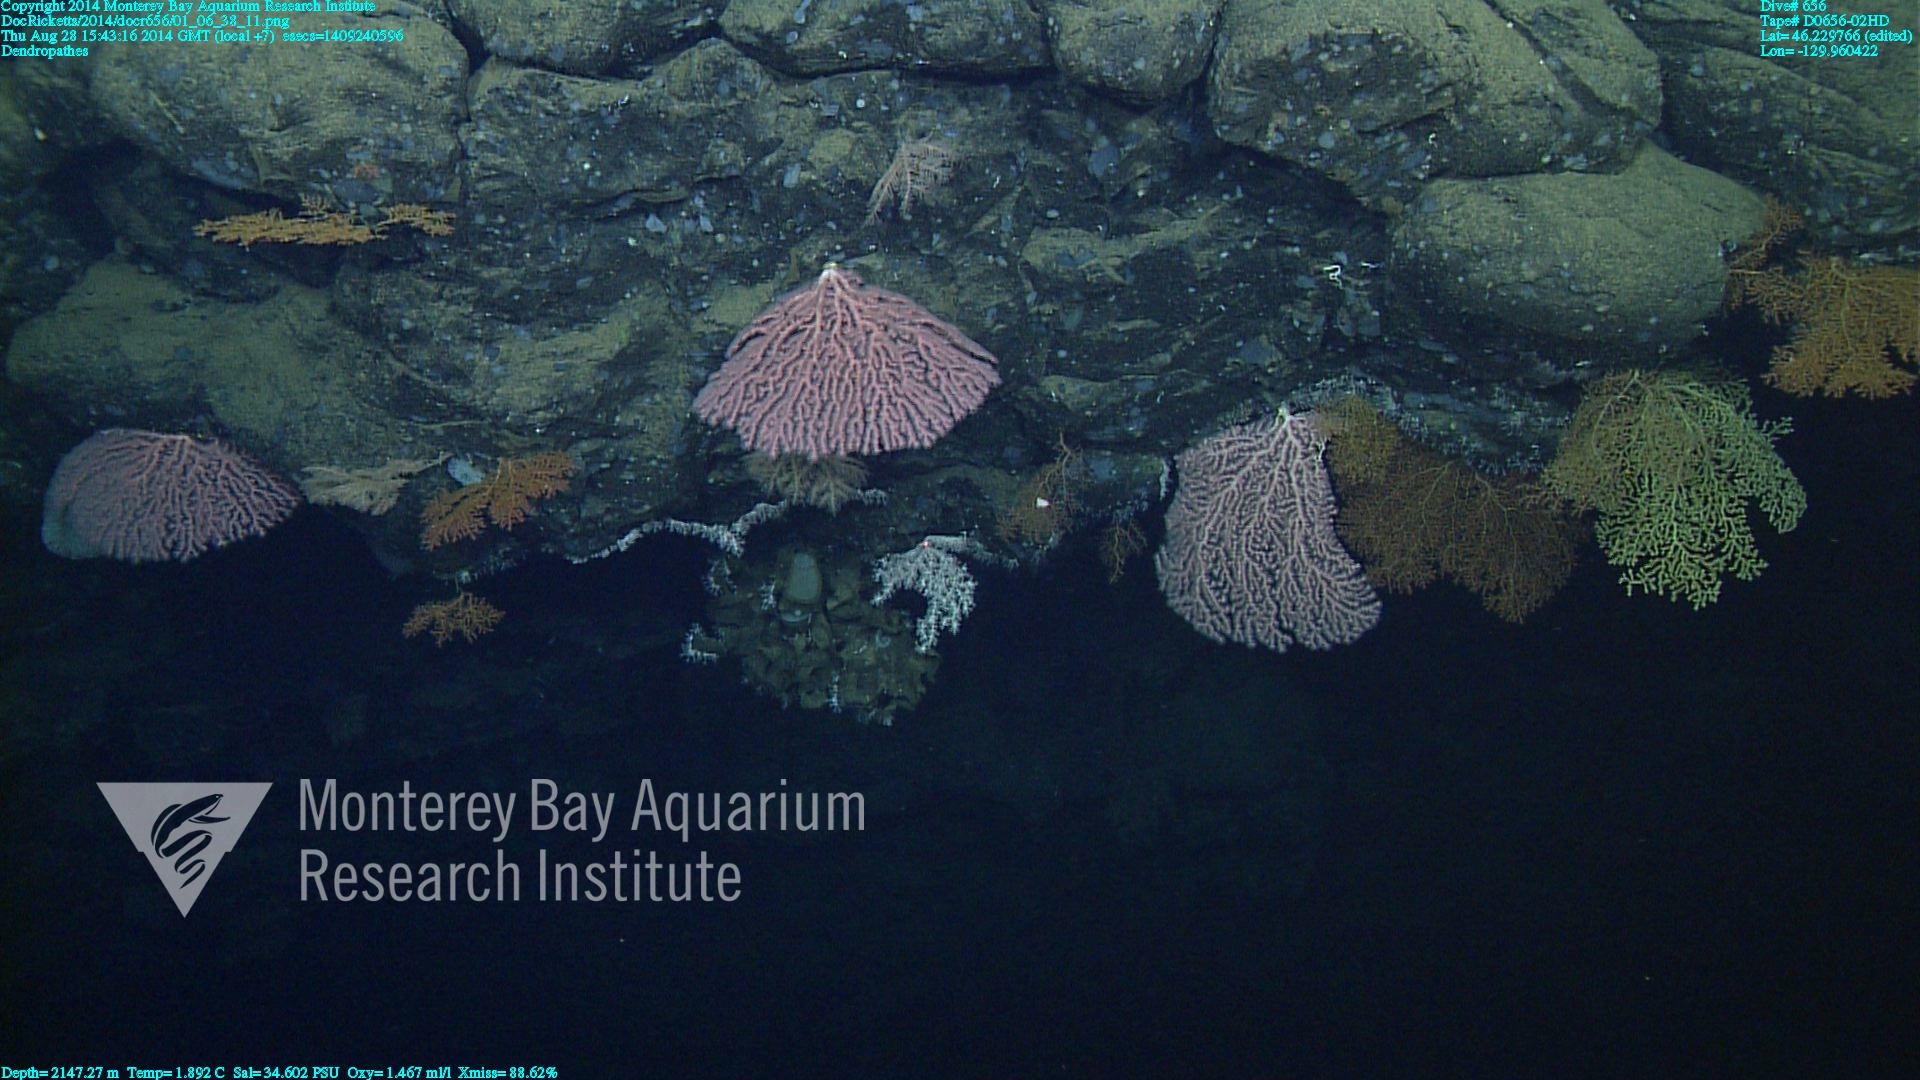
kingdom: Animalia
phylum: Cnidaria
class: Anthozoa
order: Antipatharia
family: Schizopathidae
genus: Dendropathes
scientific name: Dendropathes
